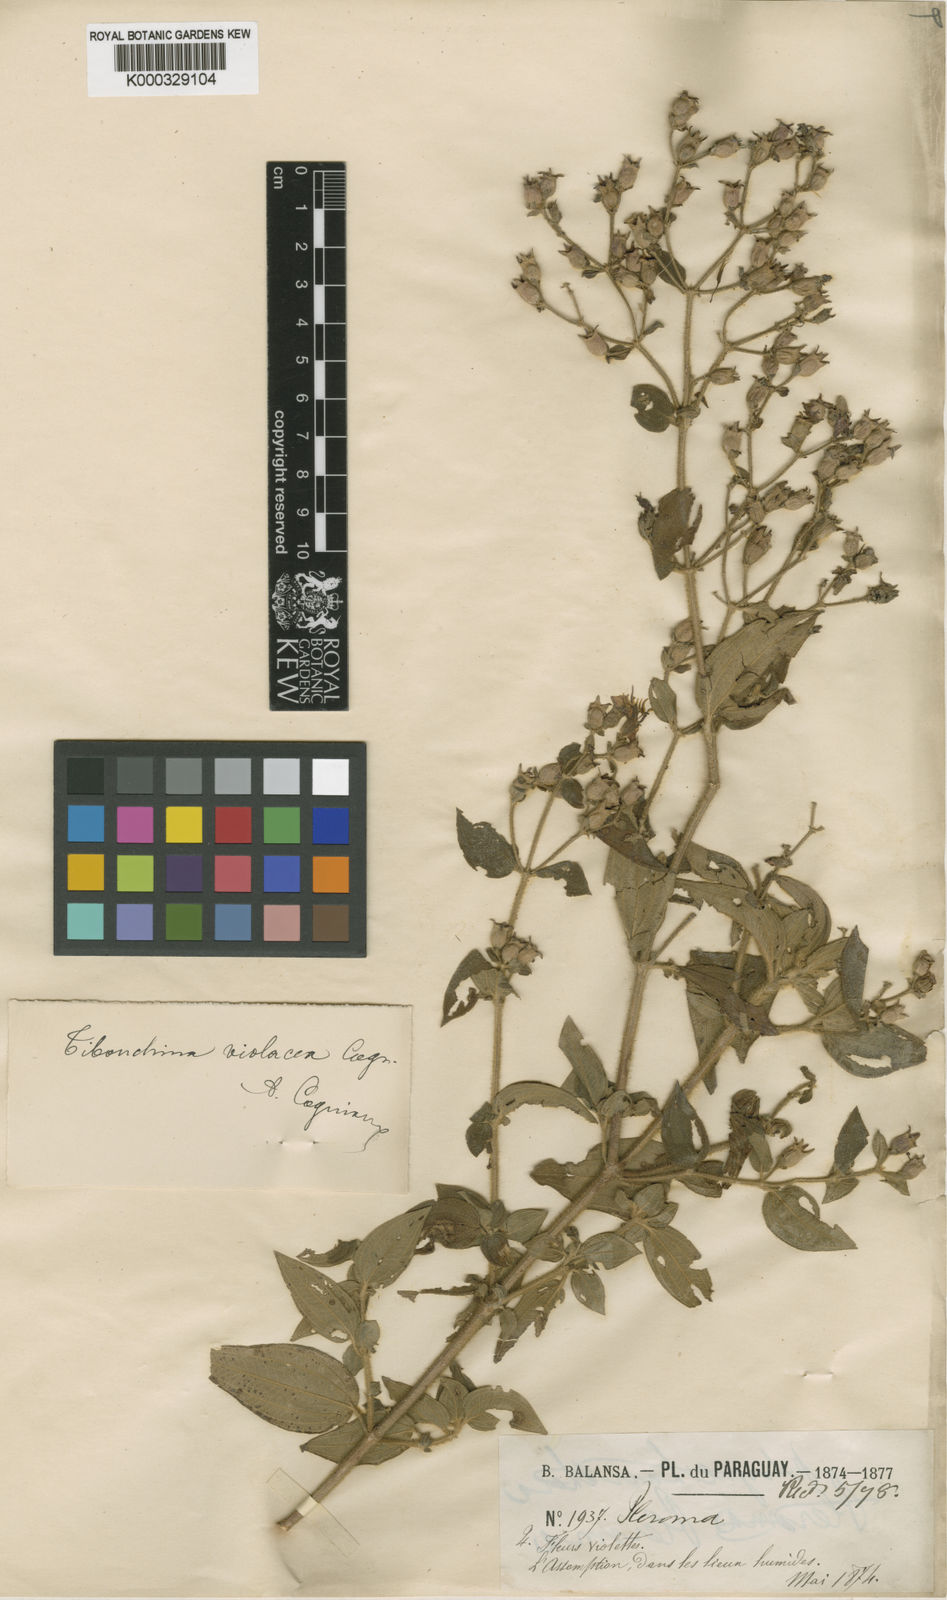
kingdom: Plantae
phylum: Tracheophyta
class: Magnoliopsida
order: Myrtales
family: Melastomataceae
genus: Chaetogastra
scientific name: Chaetogastra violacea
